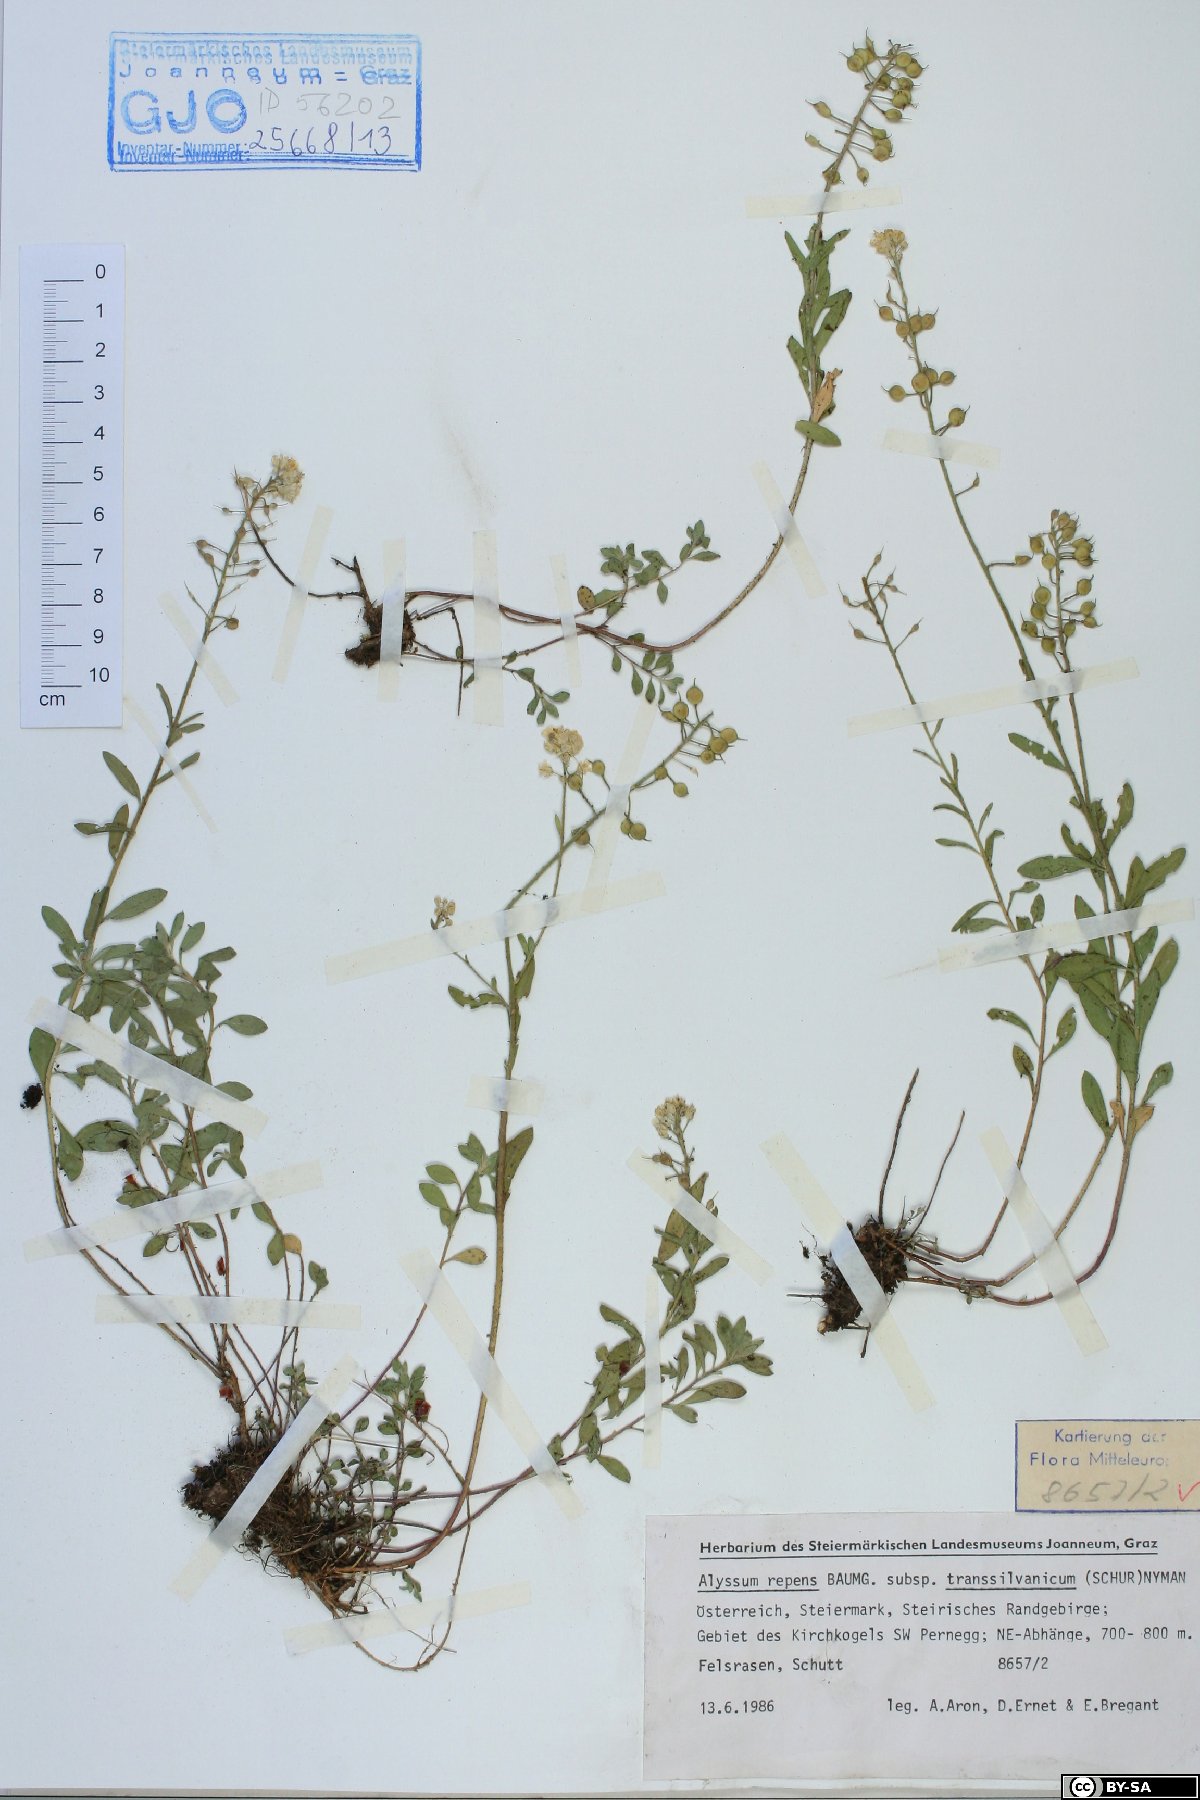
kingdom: Plantae
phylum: Tracheophyta
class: Magnoliopsida
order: Brassicales
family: Brassicaceae
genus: Alyssum
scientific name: Alyssum repens
